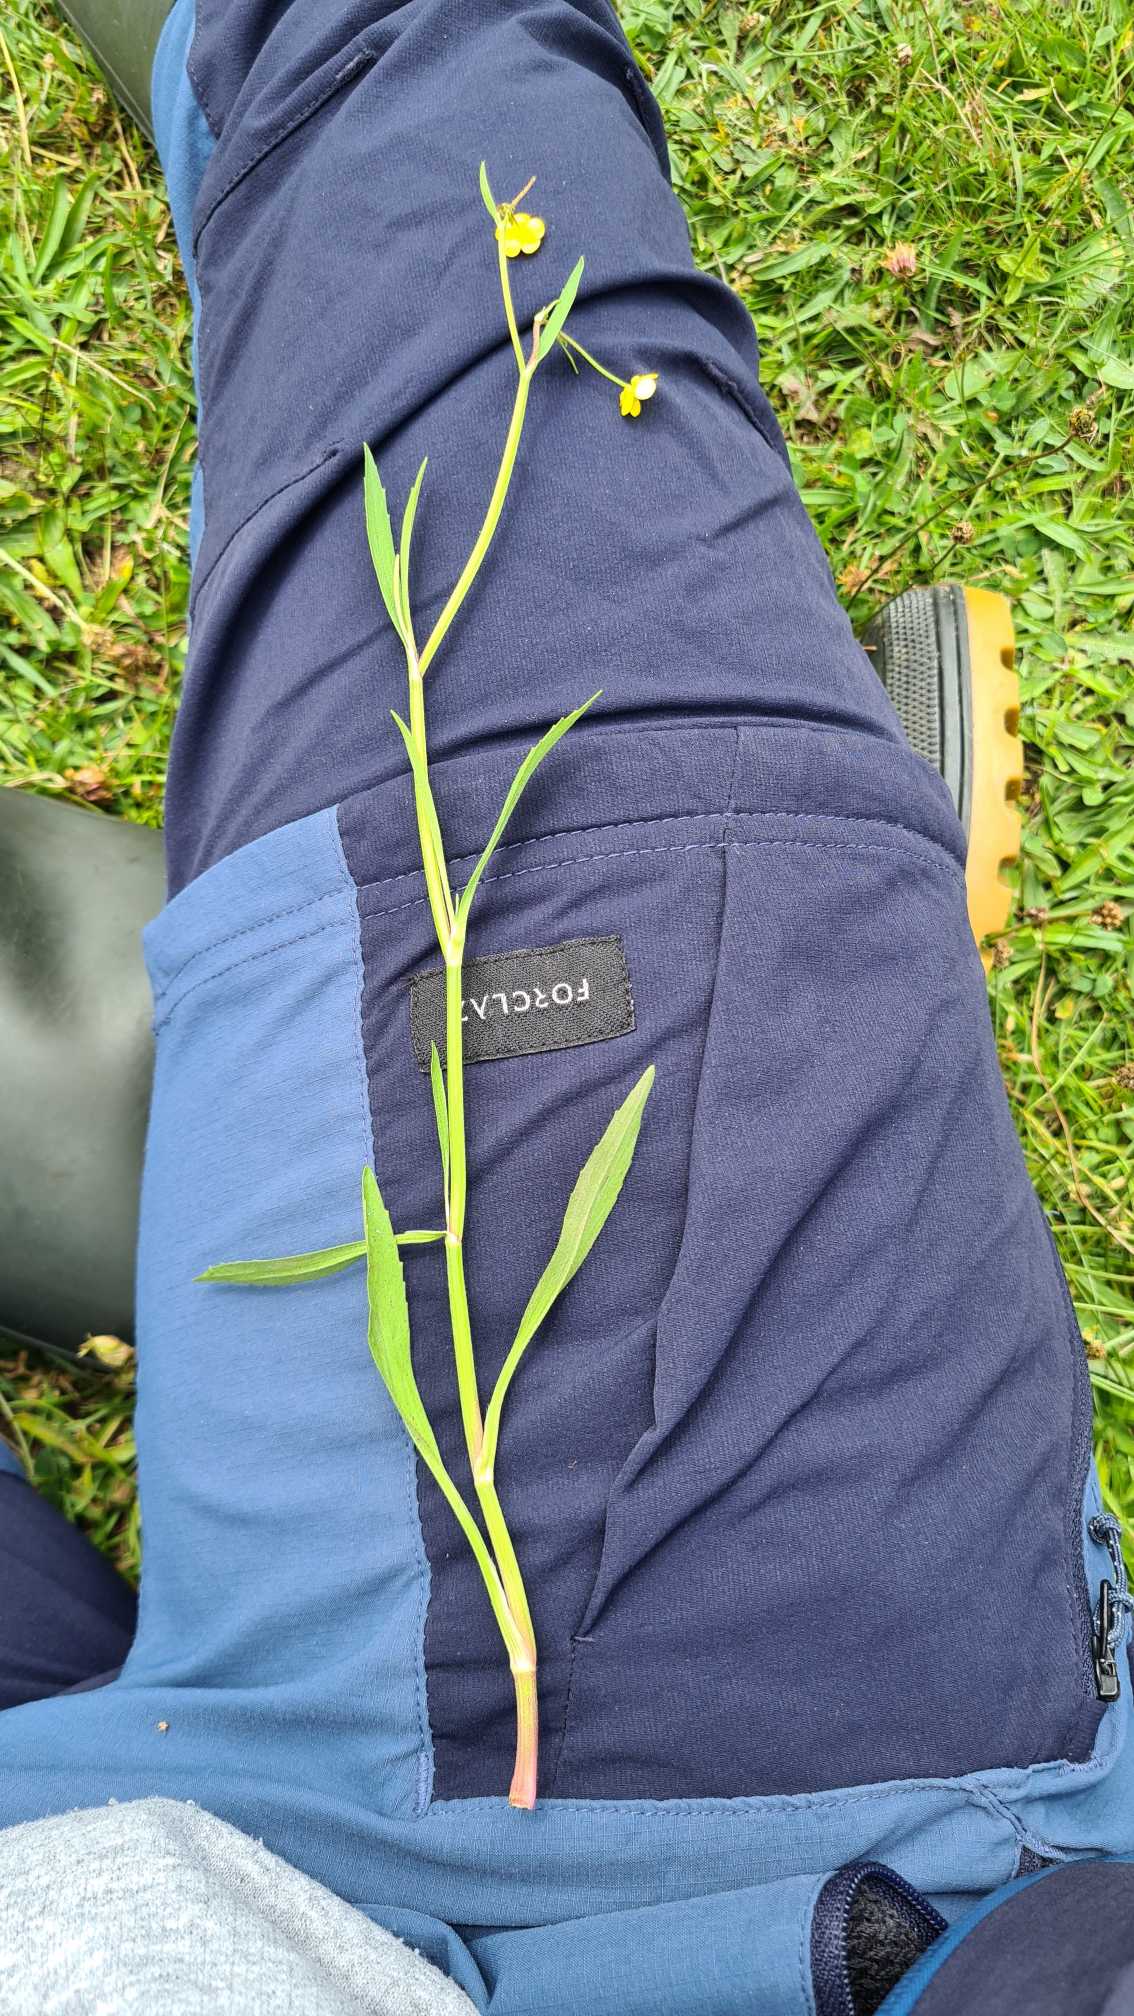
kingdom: Plantae
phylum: Tracheophyta
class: Magnoliopsida
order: Ranunculales
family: Ranunculaceae
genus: Ranunculus
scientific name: Ranunculus flammula
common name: Kær-ranunkel
